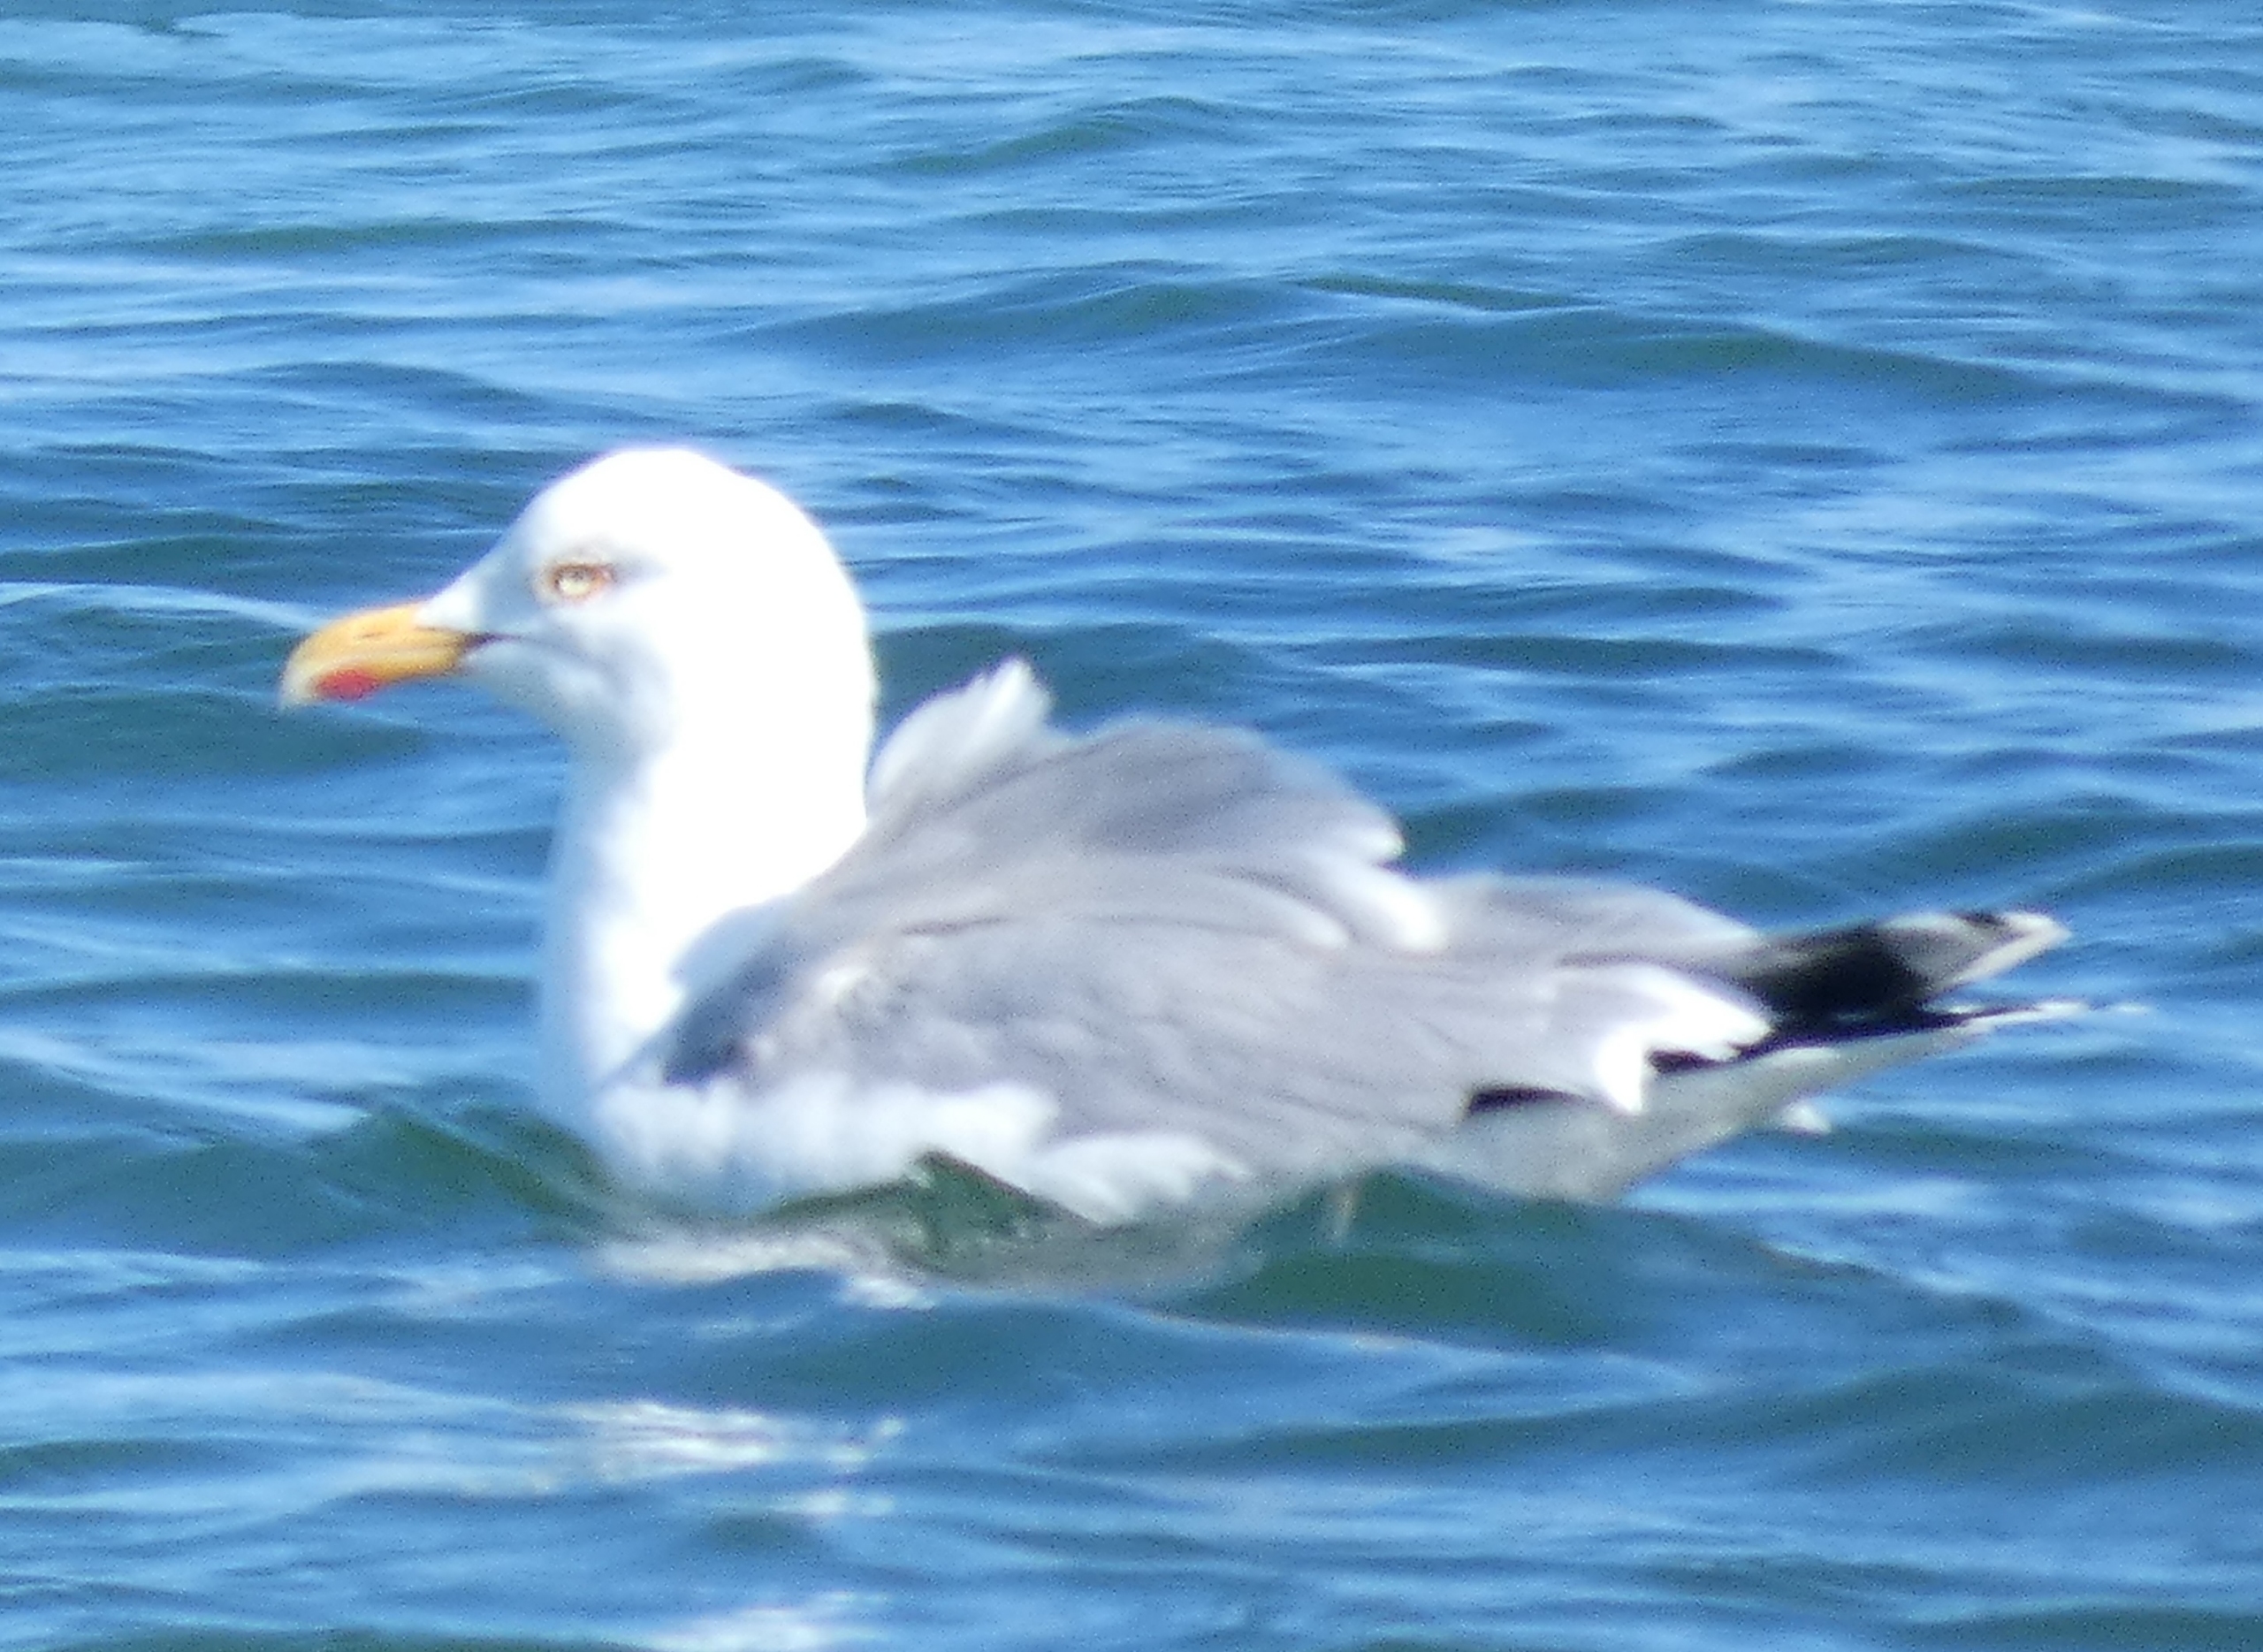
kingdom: Animalia
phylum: Chordata
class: Aves
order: Charadriiformes
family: Laridae
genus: Larus
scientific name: Larus argentatus
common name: Sølvmåge
